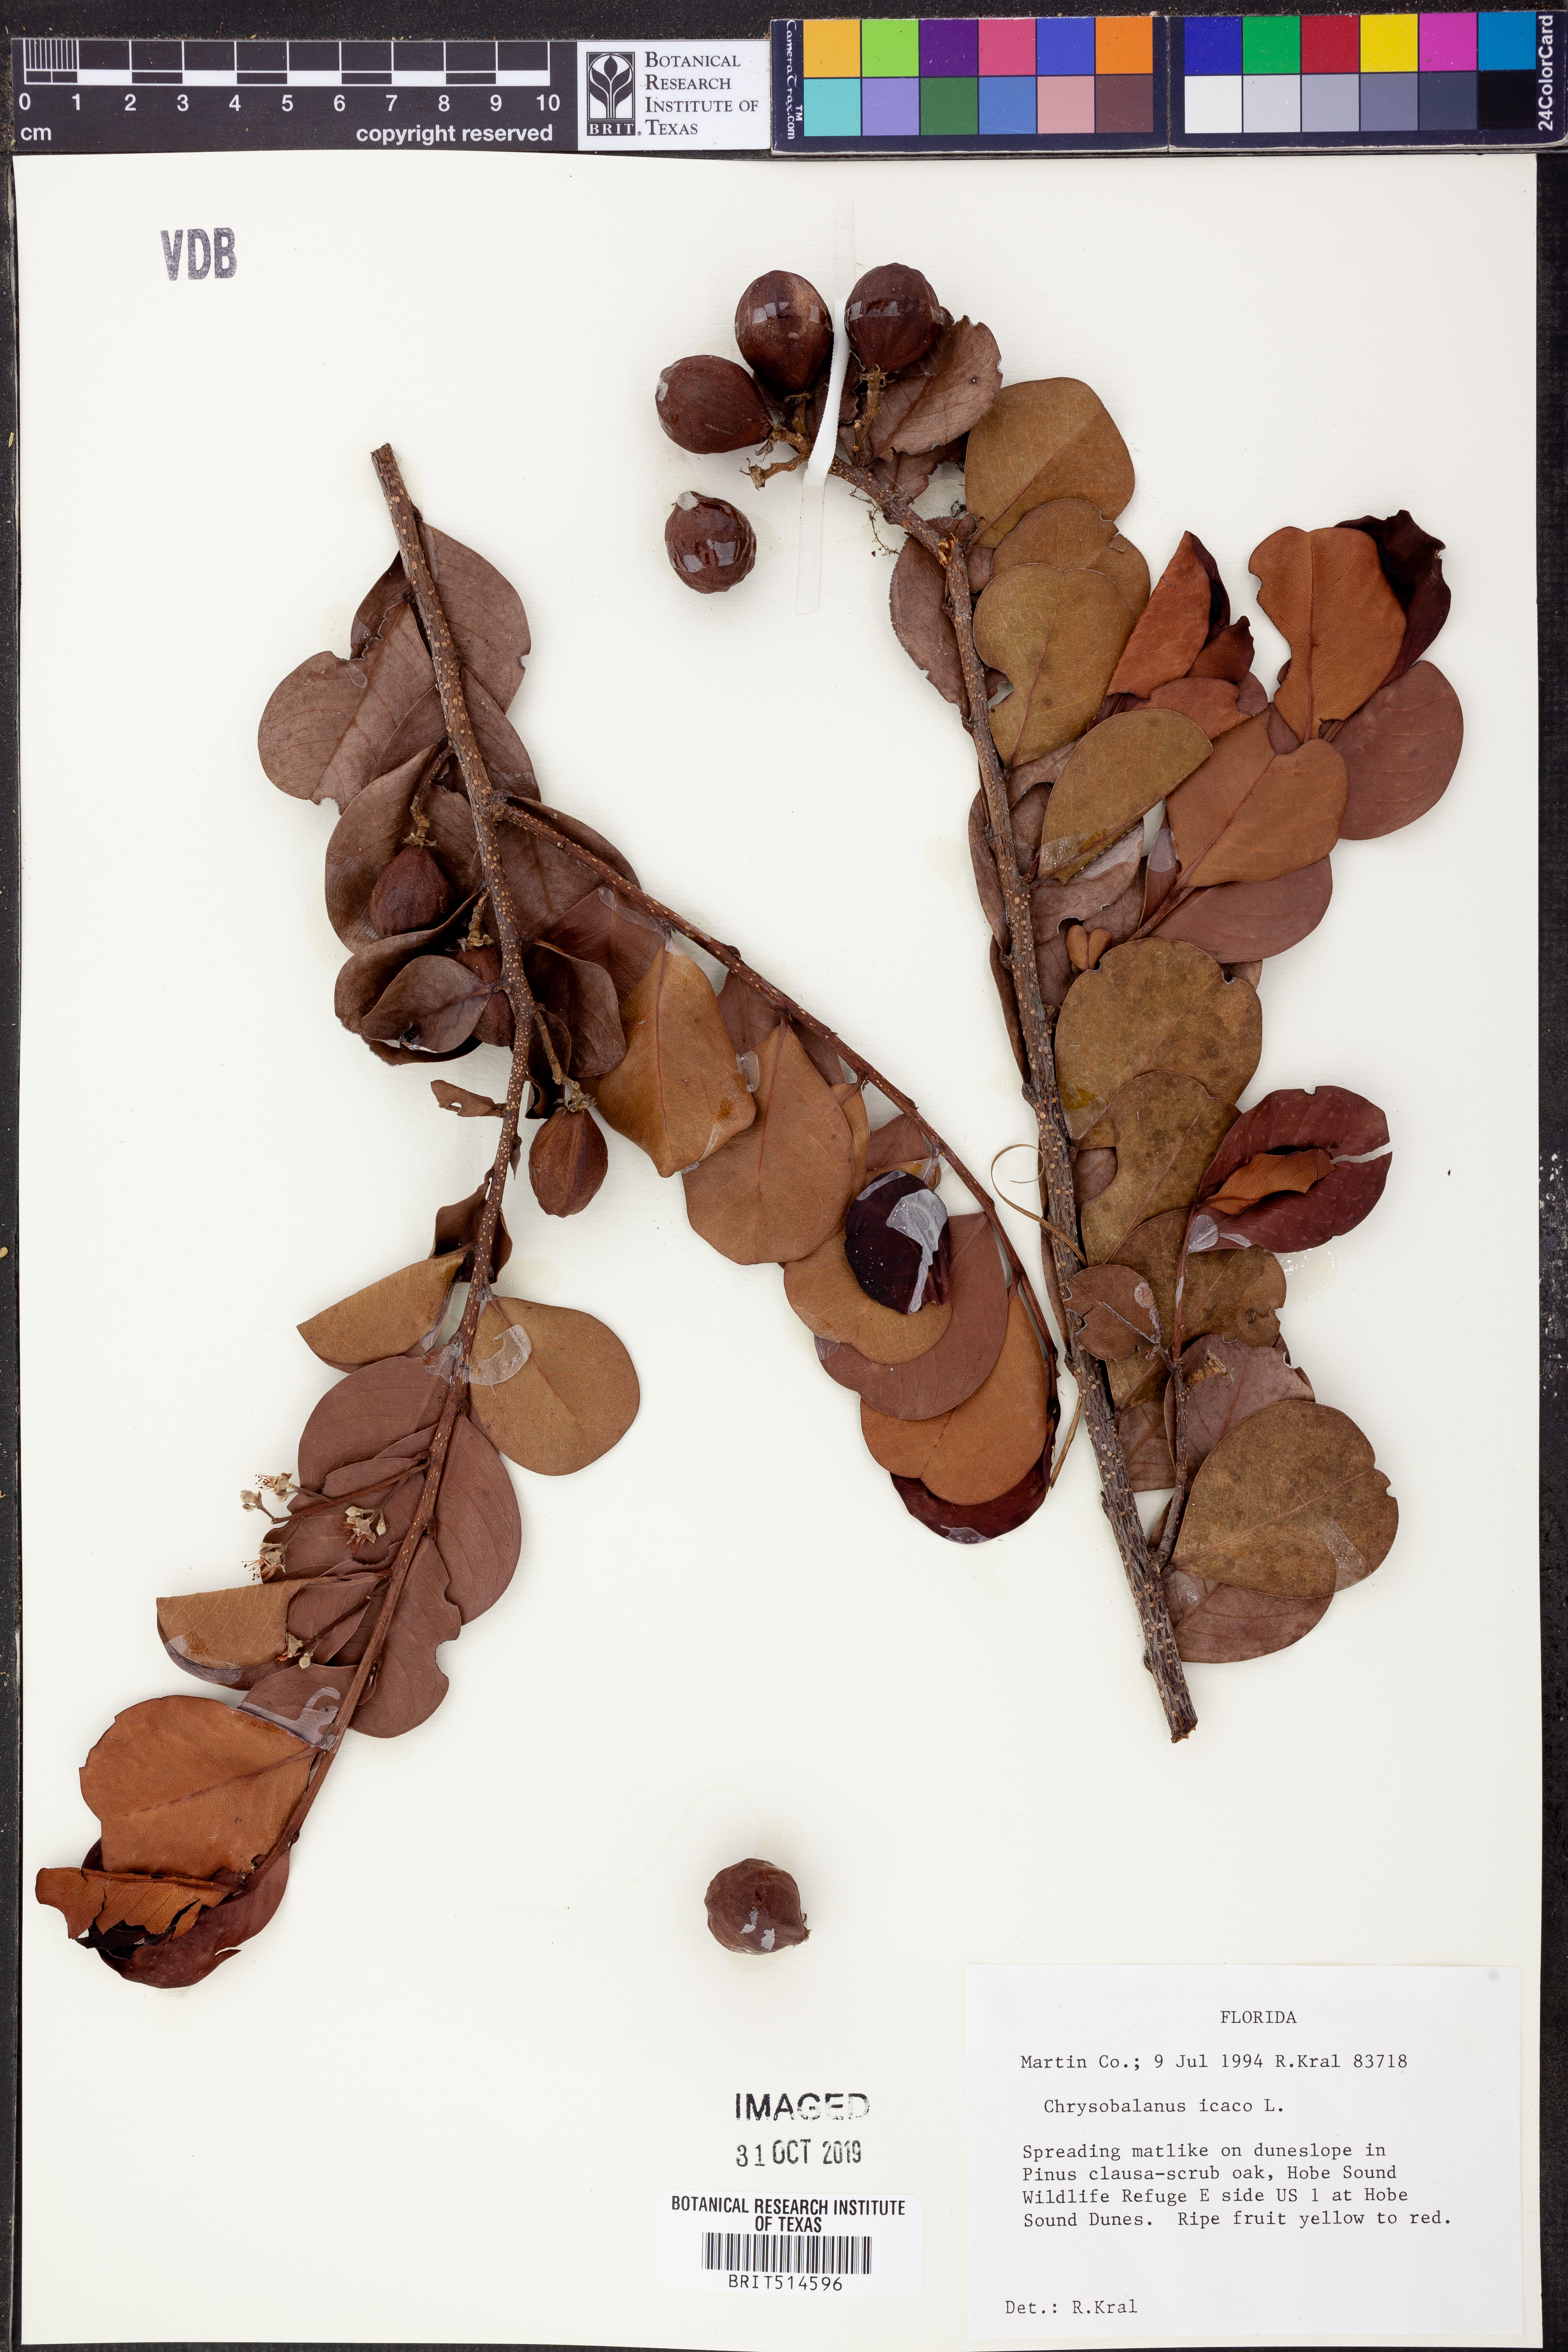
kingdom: Plantae
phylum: Tracheophyta
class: Magnoliopsida
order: Malpighiales
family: Chrysobalanaceae
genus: Chrysobalanus
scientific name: Chrysobalanus icaco
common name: Coco plum
